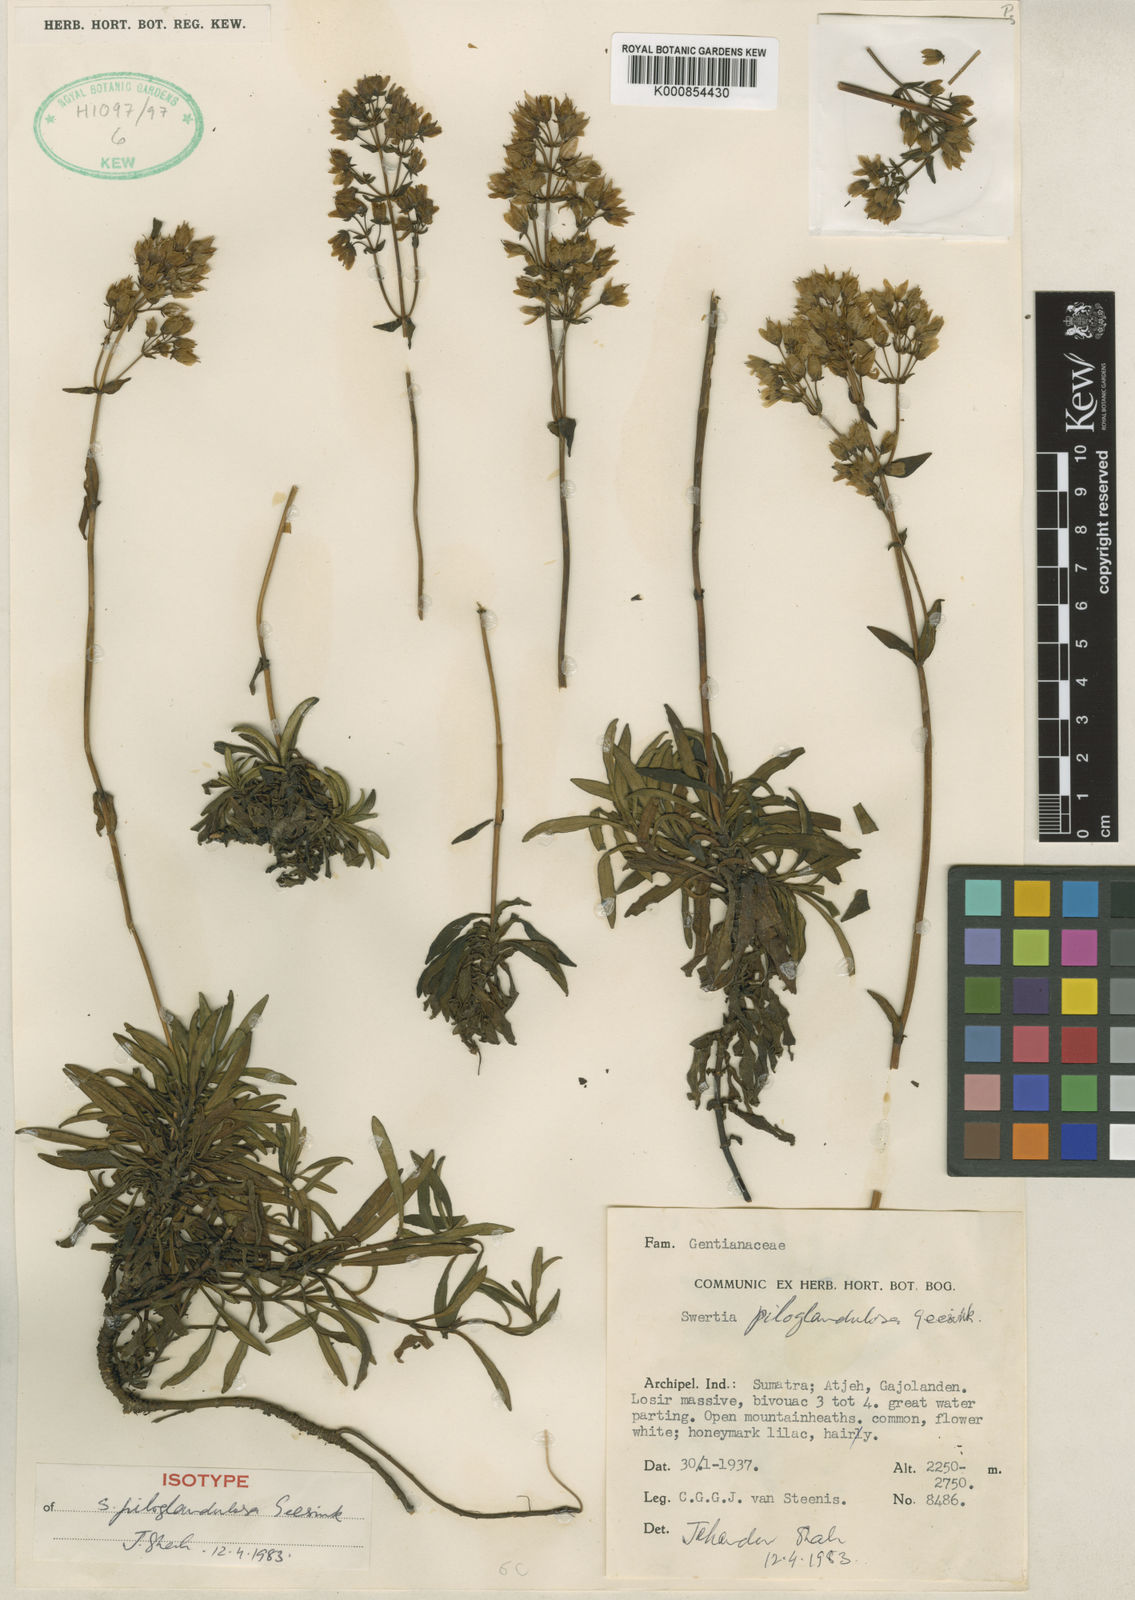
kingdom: Plantae
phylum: Tracheophyta
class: Magnoliopsida
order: Gentianales
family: Gentianaceae
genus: Swertia
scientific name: Swertia piloglandulosa
